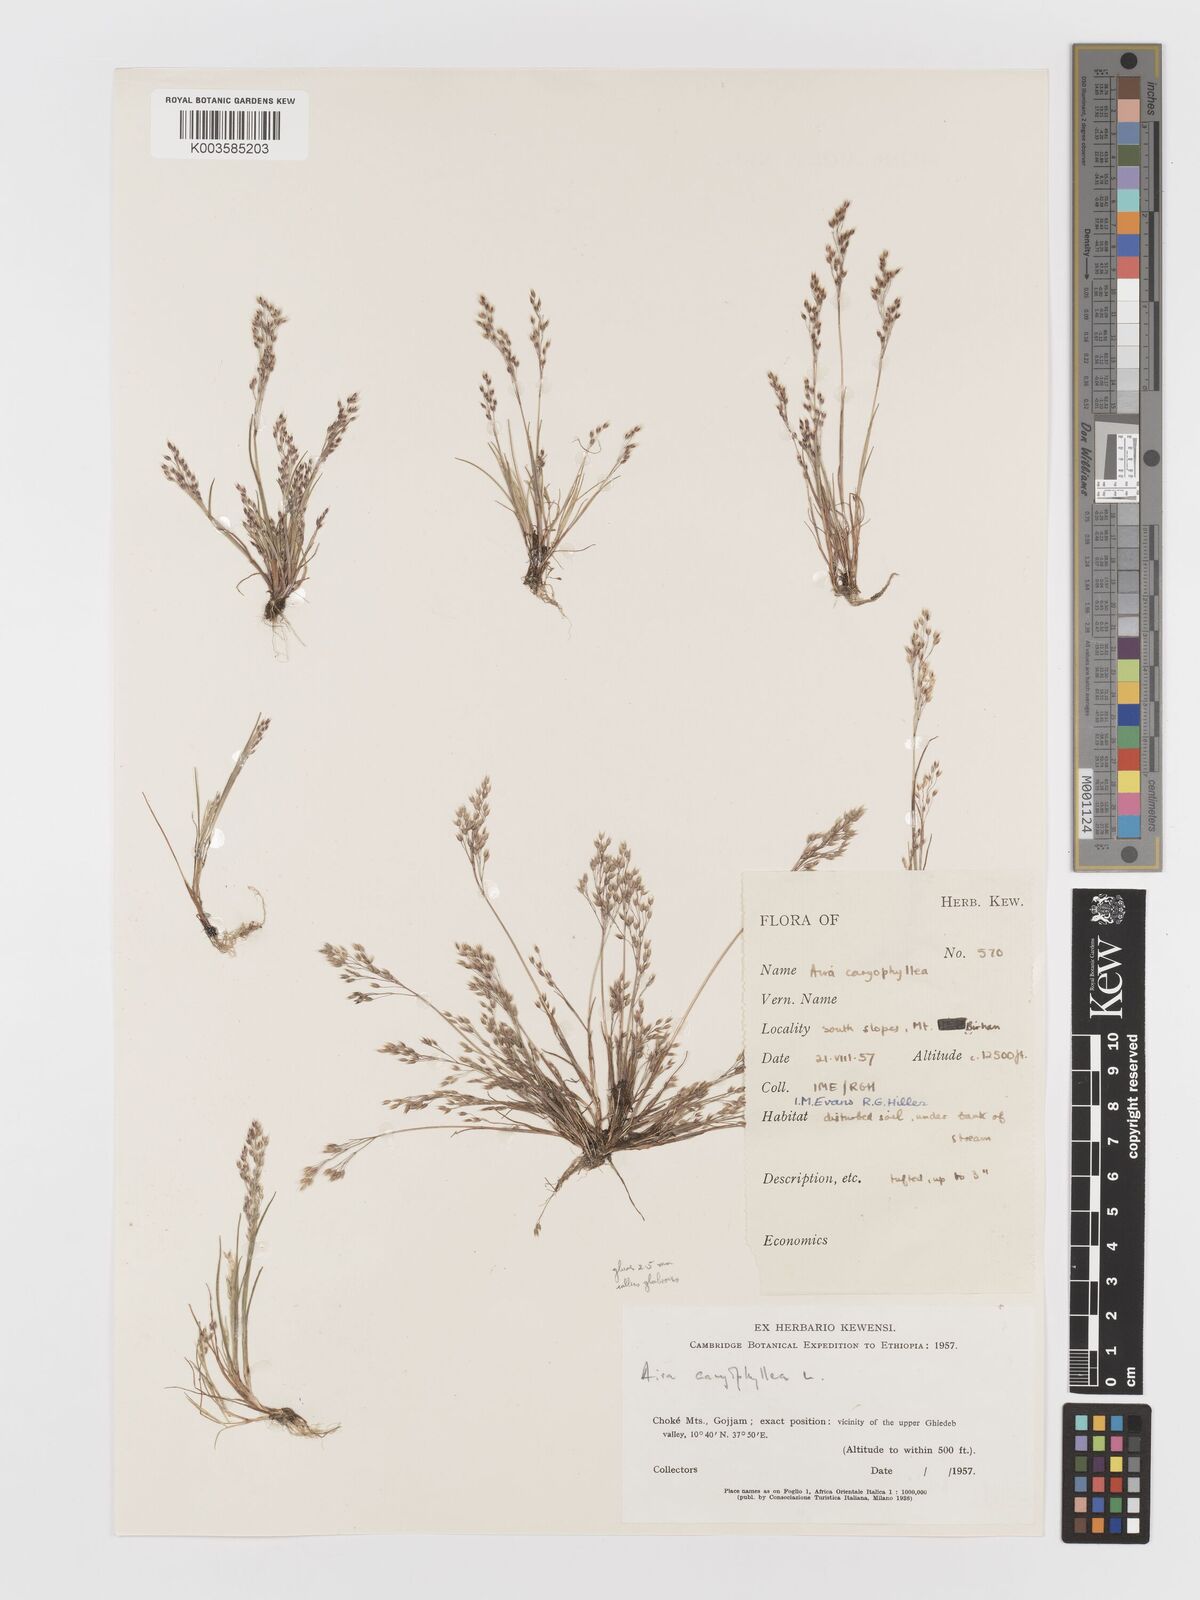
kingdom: Plantae
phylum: Tracheophyta
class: Liliopsida
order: Poales
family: Poaceae
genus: Aira
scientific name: Aira caryophyllea
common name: Silver hairgrass
